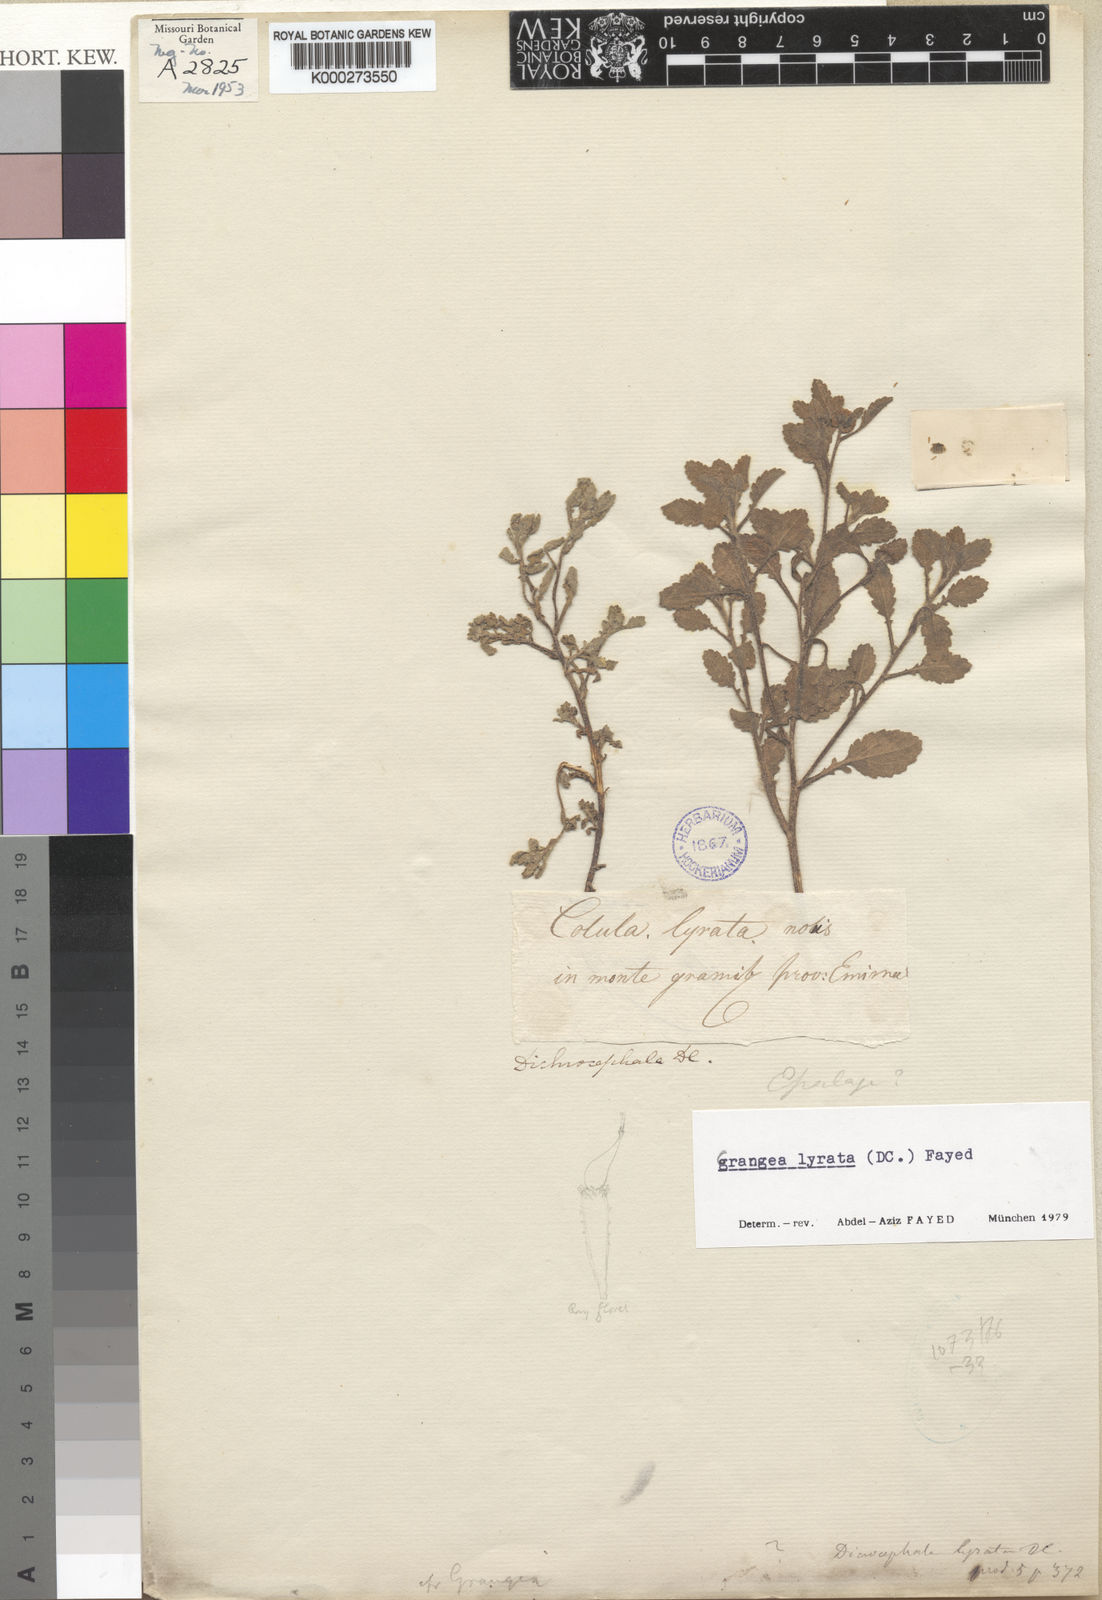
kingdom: Plantae
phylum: Tracheophyta
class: Magnoliopsida
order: Asterales
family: Asteraceae
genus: Grangea
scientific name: Grangea lyrata
